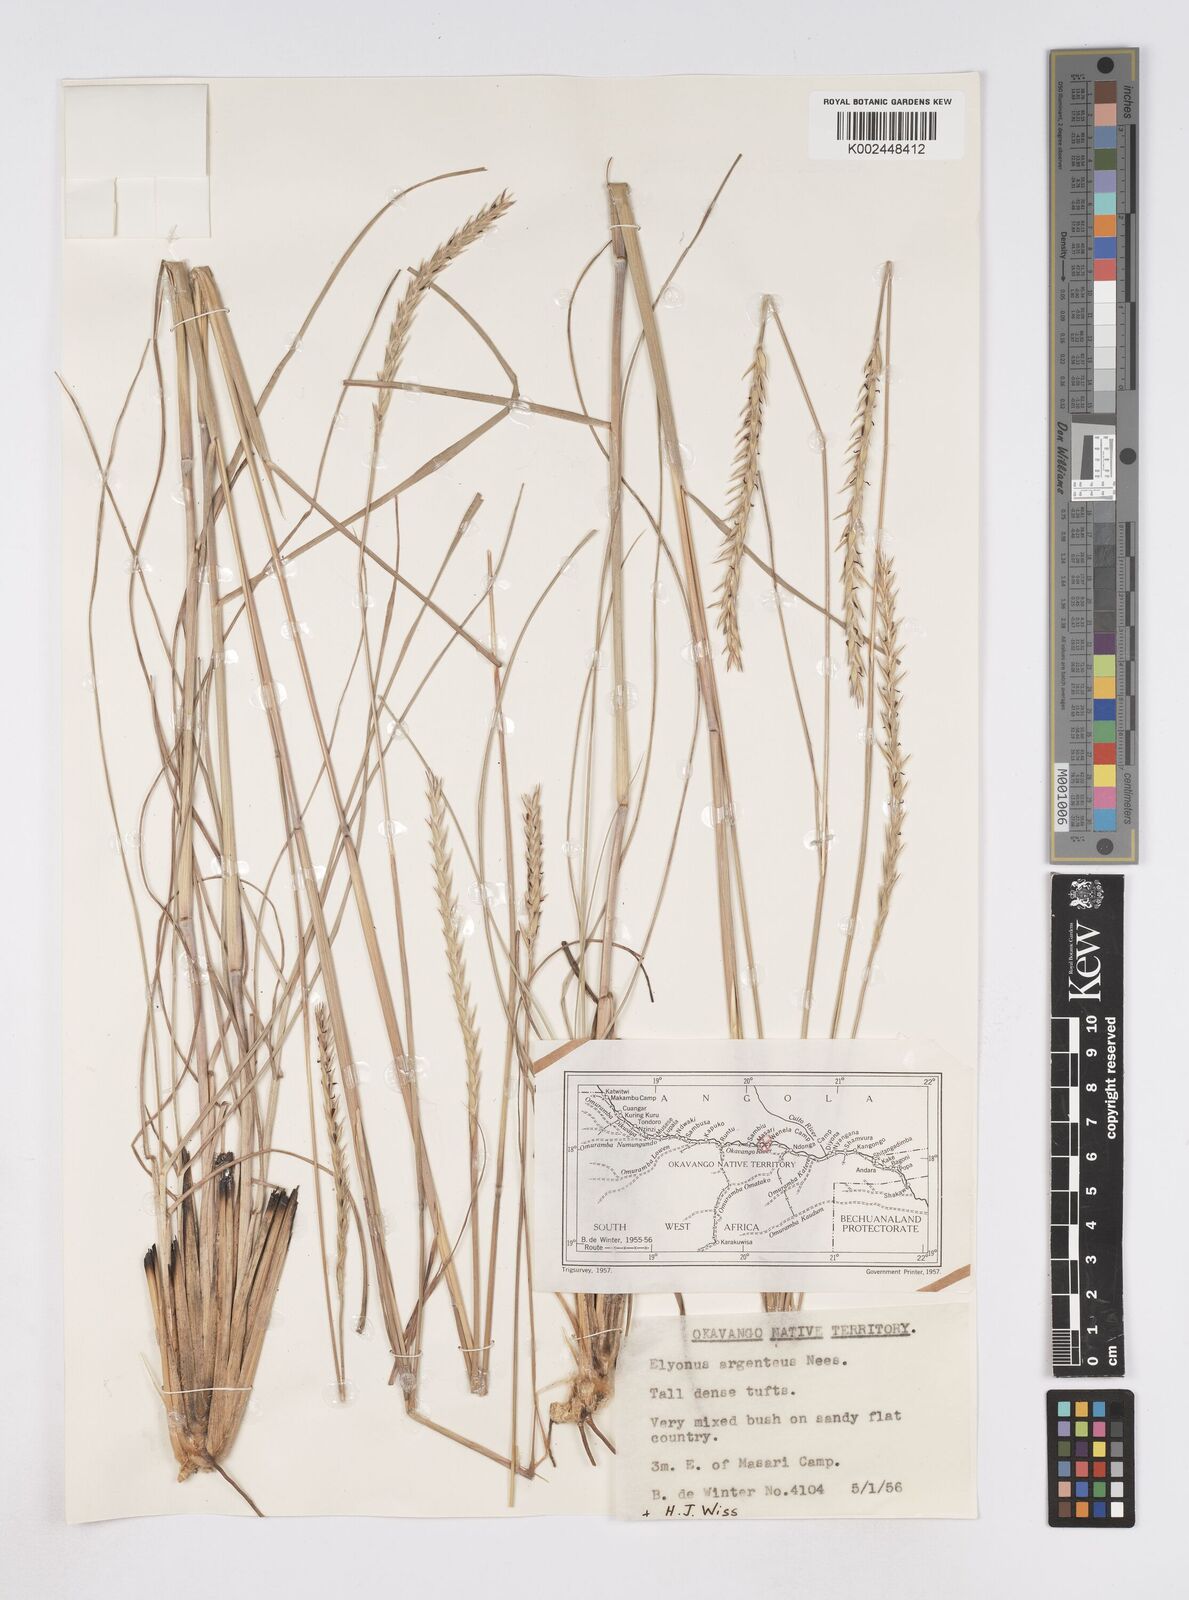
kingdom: Plantae
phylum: Tracheophyta
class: Liliopsida
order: Poales
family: Poaceae
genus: Elionurus
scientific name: Elionurus tripsacoides
